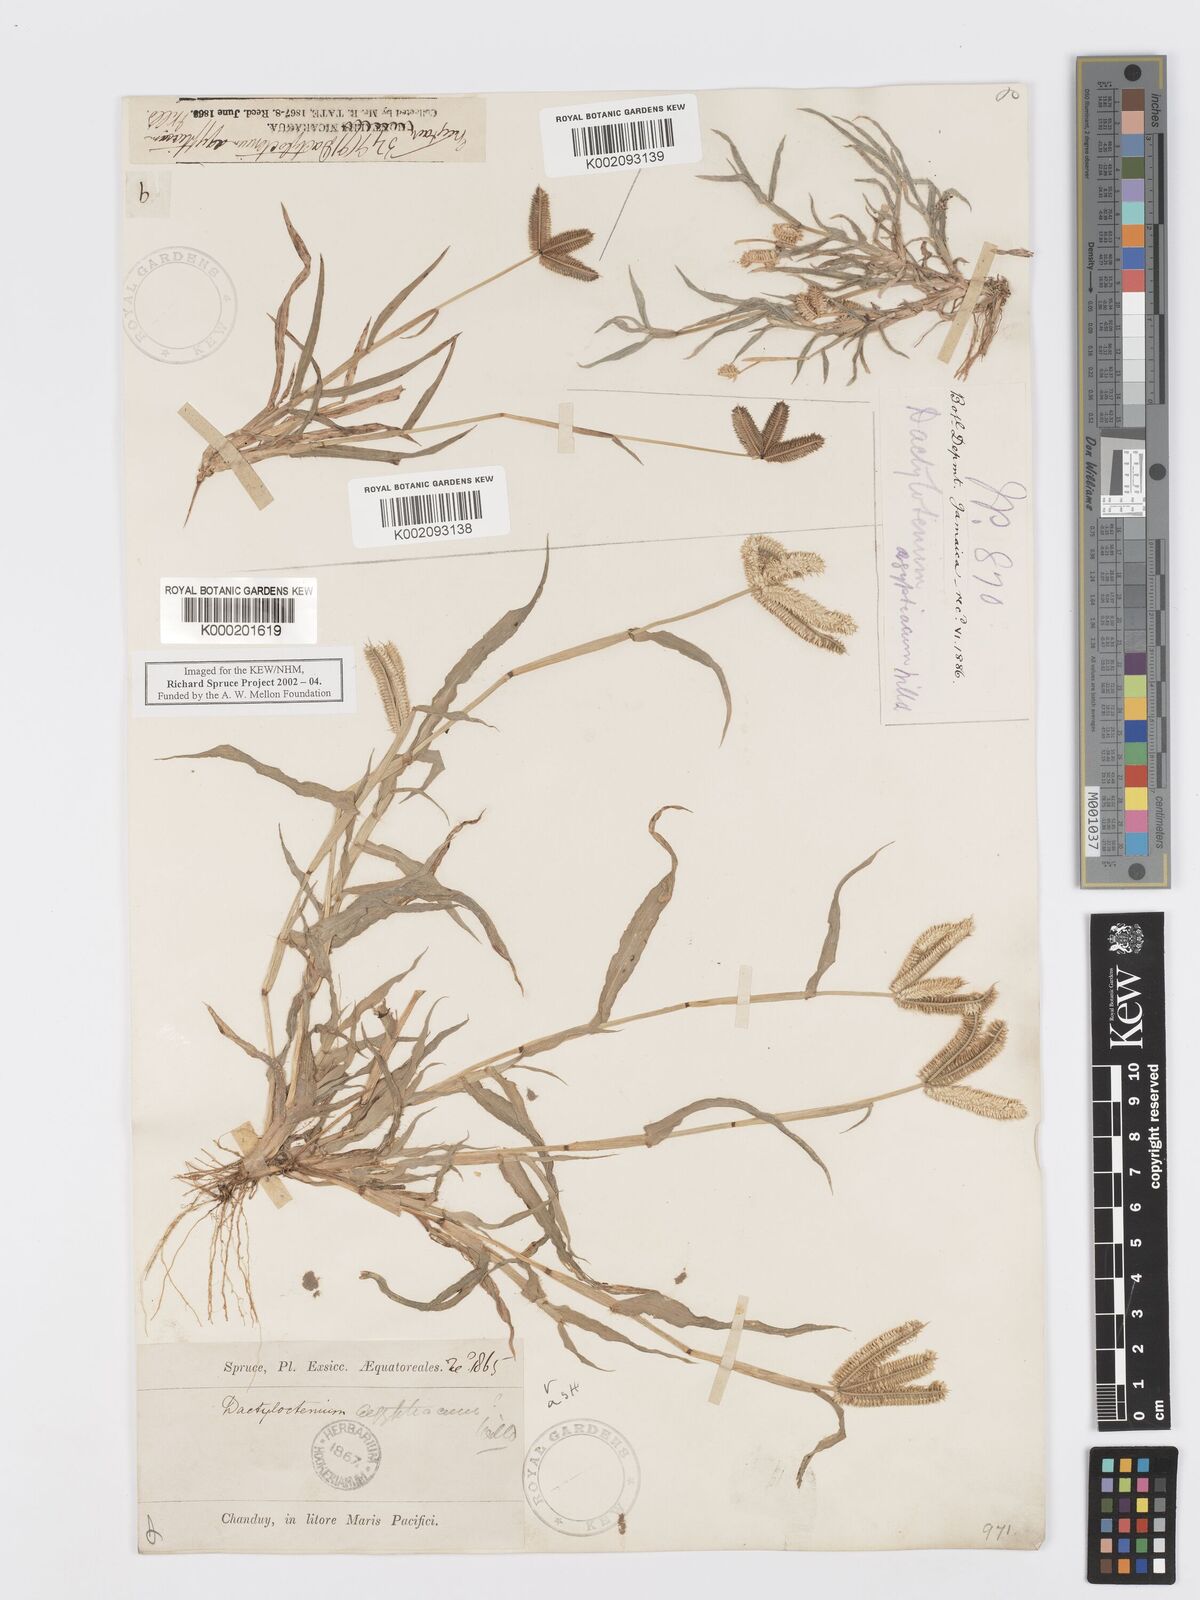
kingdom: Plantae
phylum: Tracheophyta
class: Liliopsida
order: Poales
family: Poaceae
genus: Dactyloctenium
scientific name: Dactyloctenium aegyptium
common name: Egyptian grass
